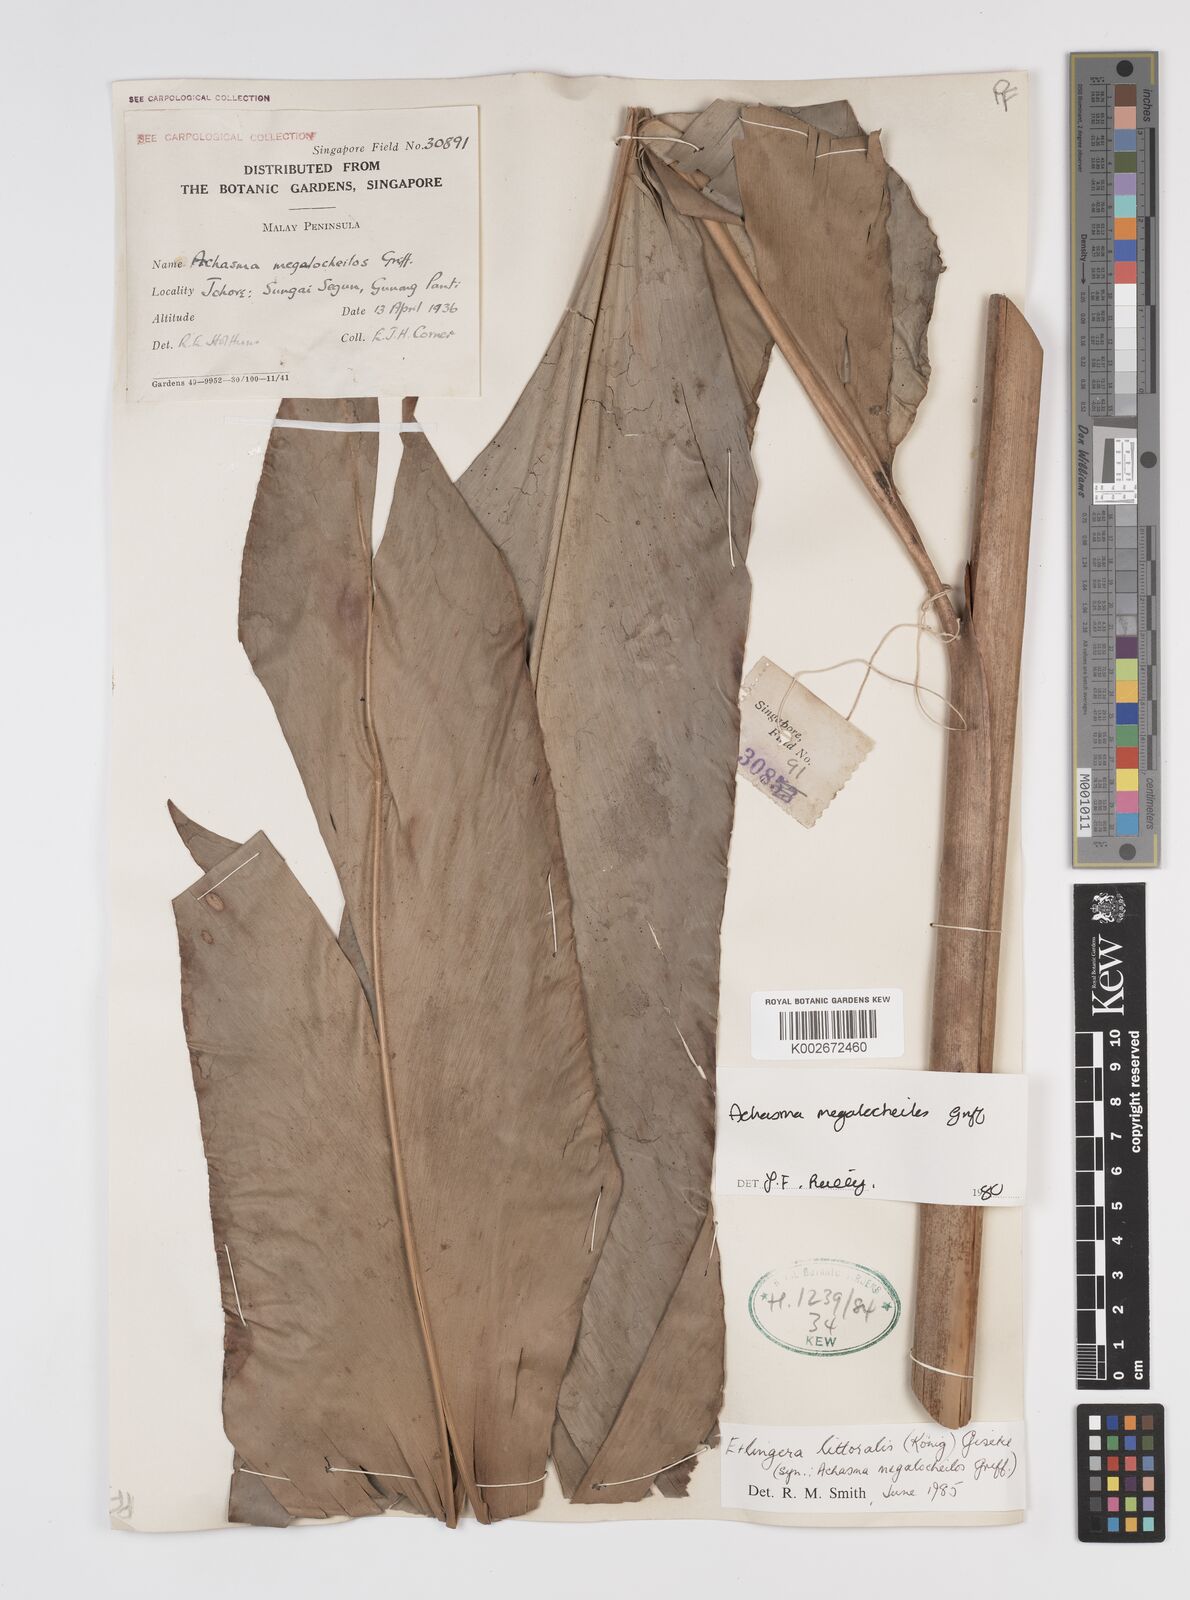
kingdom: Plantae
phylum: Tracheophyta
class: Liliopsida
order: Zingiberales
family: Zingiberaceae
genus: Etlingera
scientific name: Etlingera littoralis
